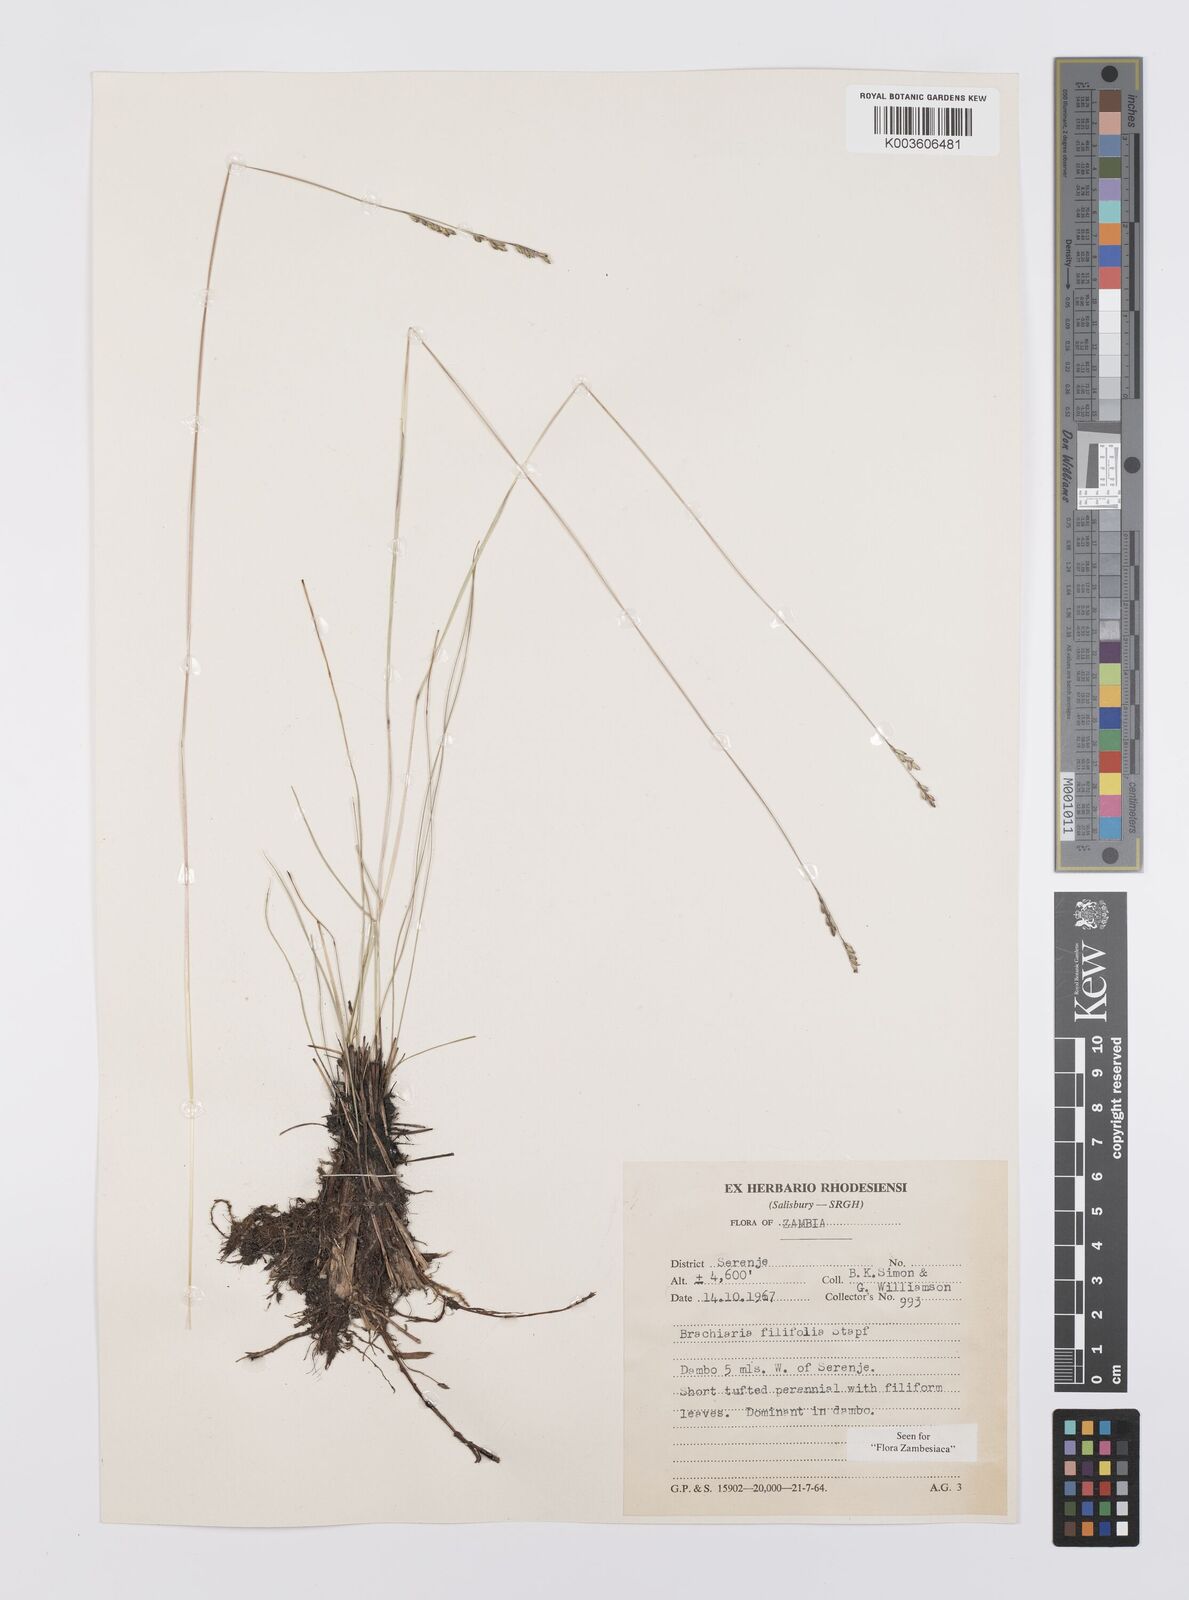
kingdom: Plantae
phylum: Tracheophyta
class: Liliopsida
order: Poales
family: Poaceae
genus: Urochloa
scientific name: Urochloa subulifolia
